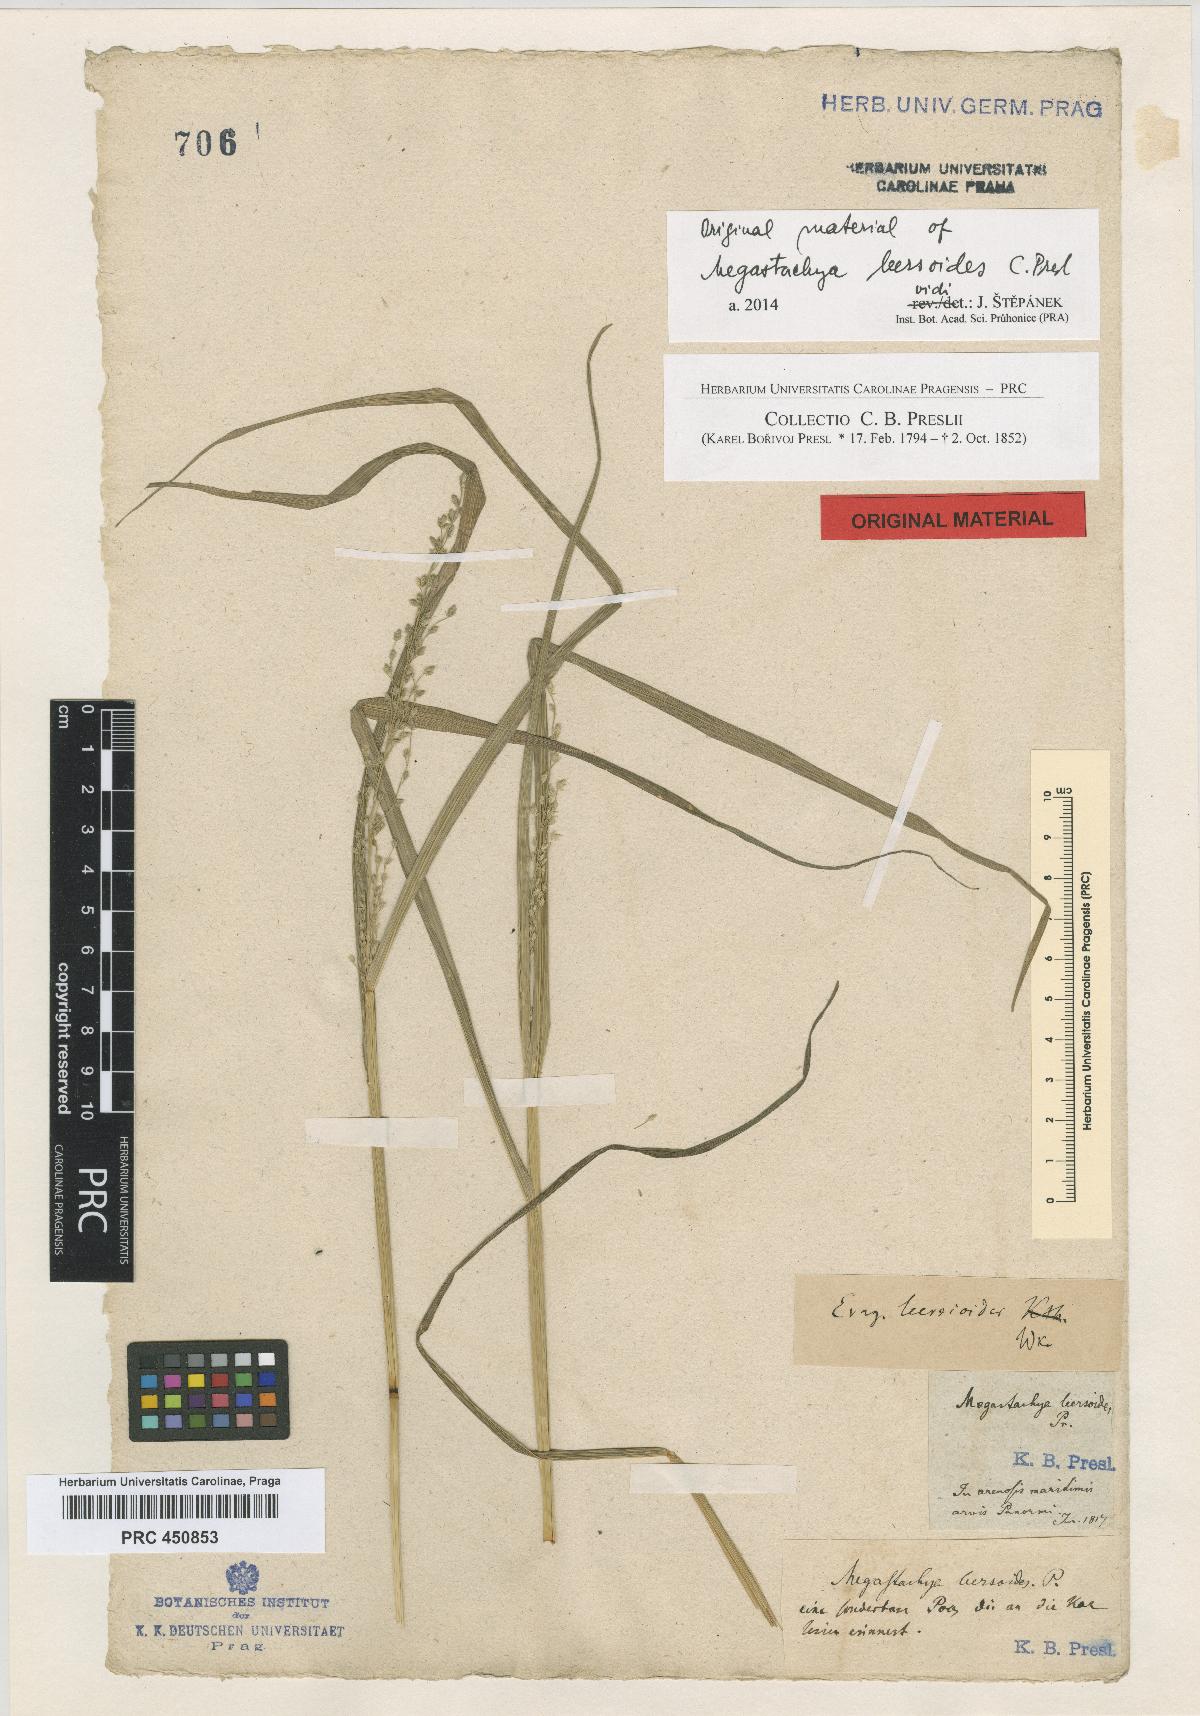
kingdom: Plantae
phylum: Tracheophyta
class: Liliopsida
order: Poales
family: Poaceae
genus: Eragrostis
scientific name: Eragrostis cilianensis
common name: Stinkgrass
